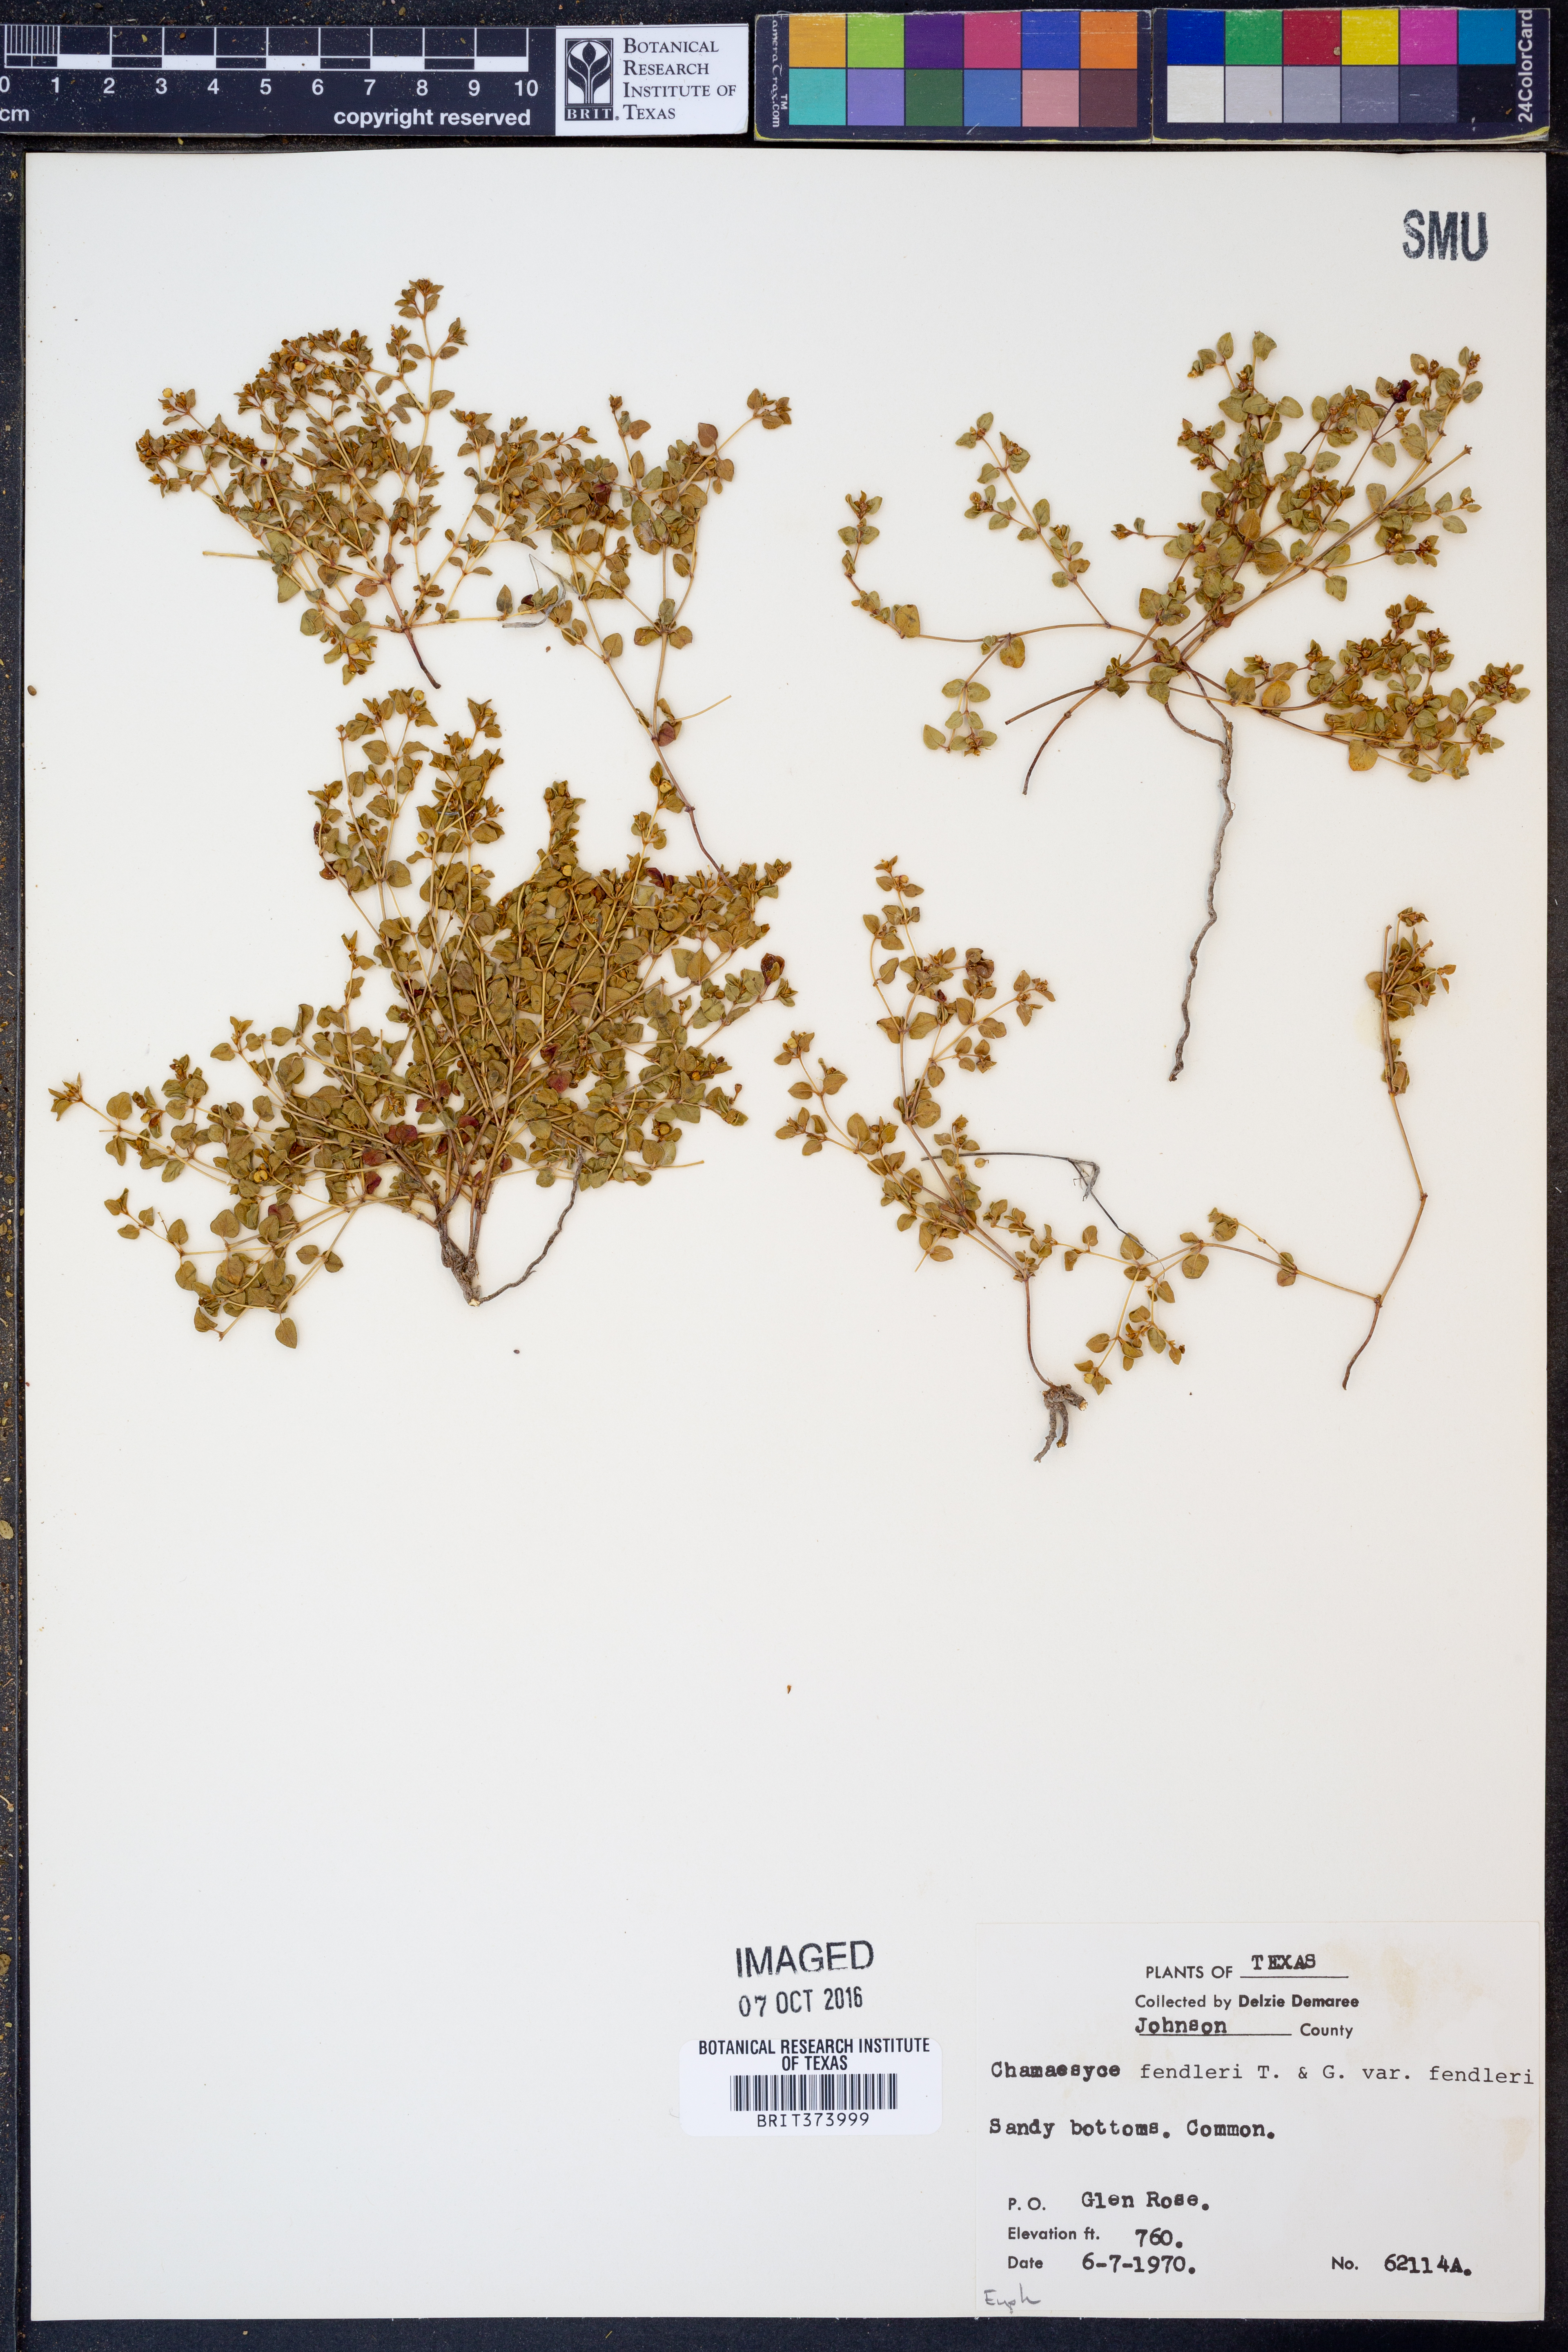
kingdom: Plantae
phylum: Tracheophyta
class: Magnoliopsida
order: Malpighiales
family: Euphorbiaceae
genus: Euphorbia
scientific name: Euphorbia fendleri
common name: Fendler's euphorbia
